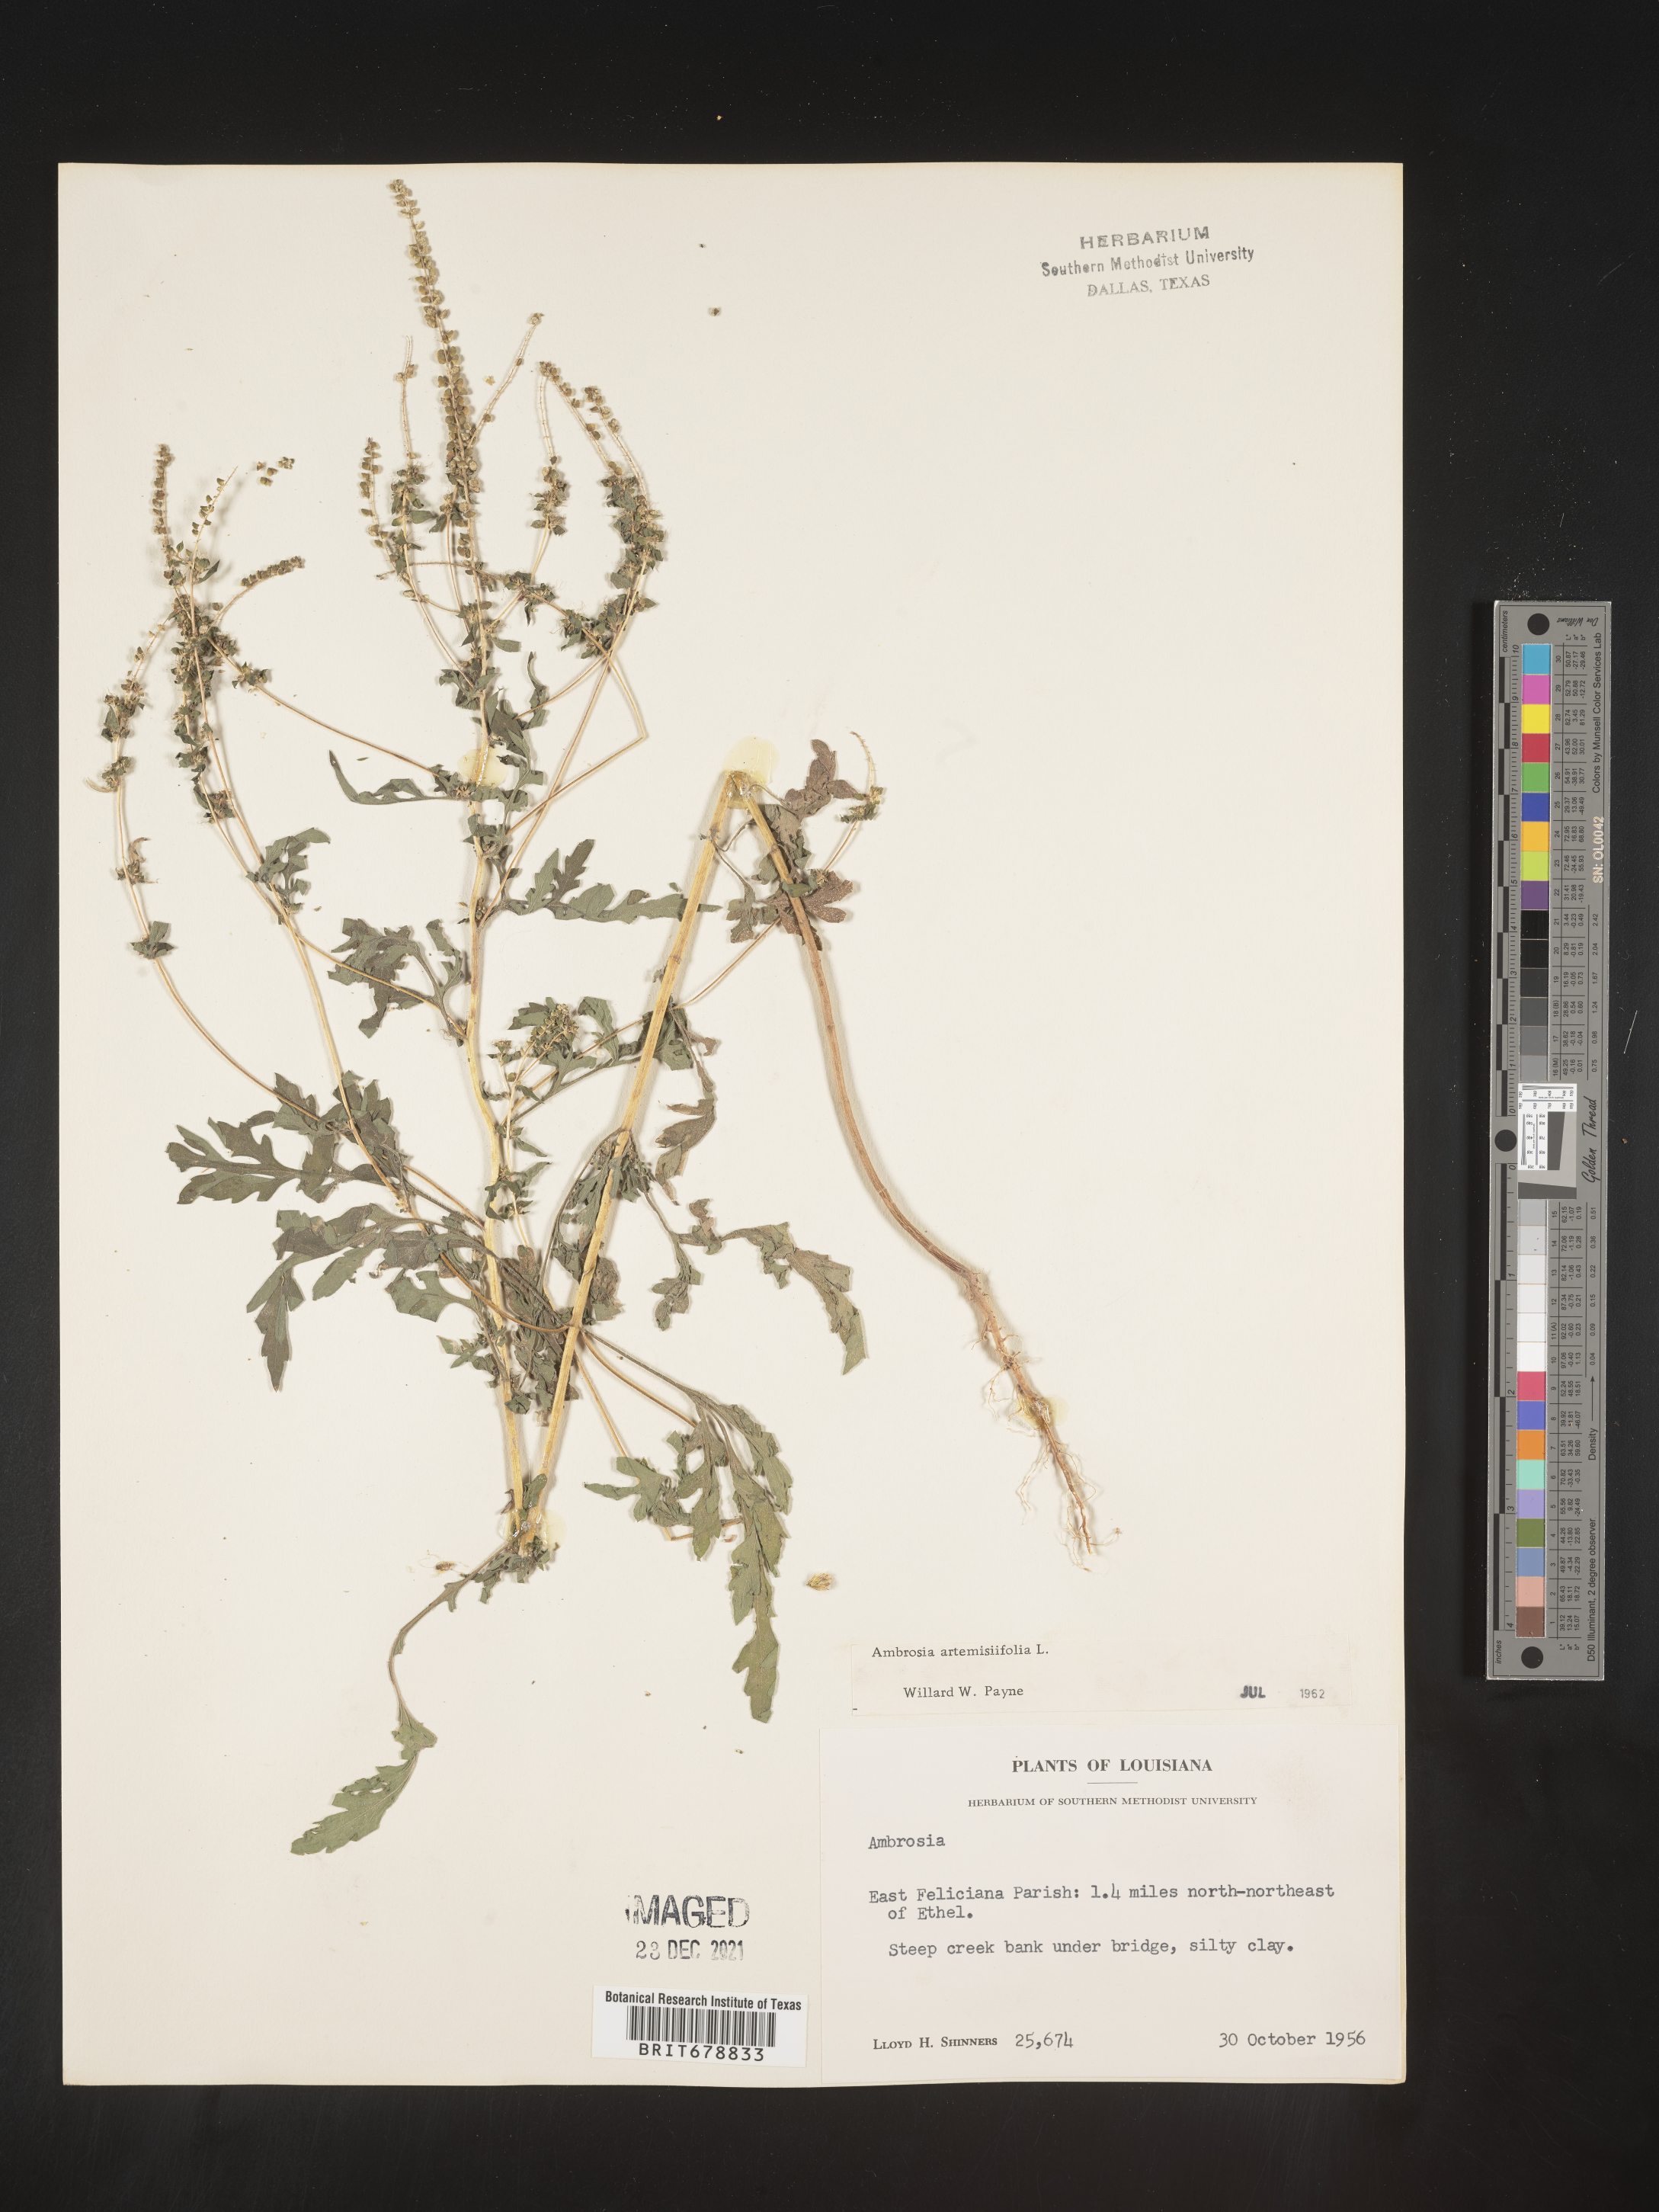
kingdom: Plantae
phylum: Tracheophyta
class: Magnoliopsida
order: Asterales
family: Asteraceae
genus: Ambrosia
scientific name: Ambrosia artemisiifolia
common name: Annual ragweed
